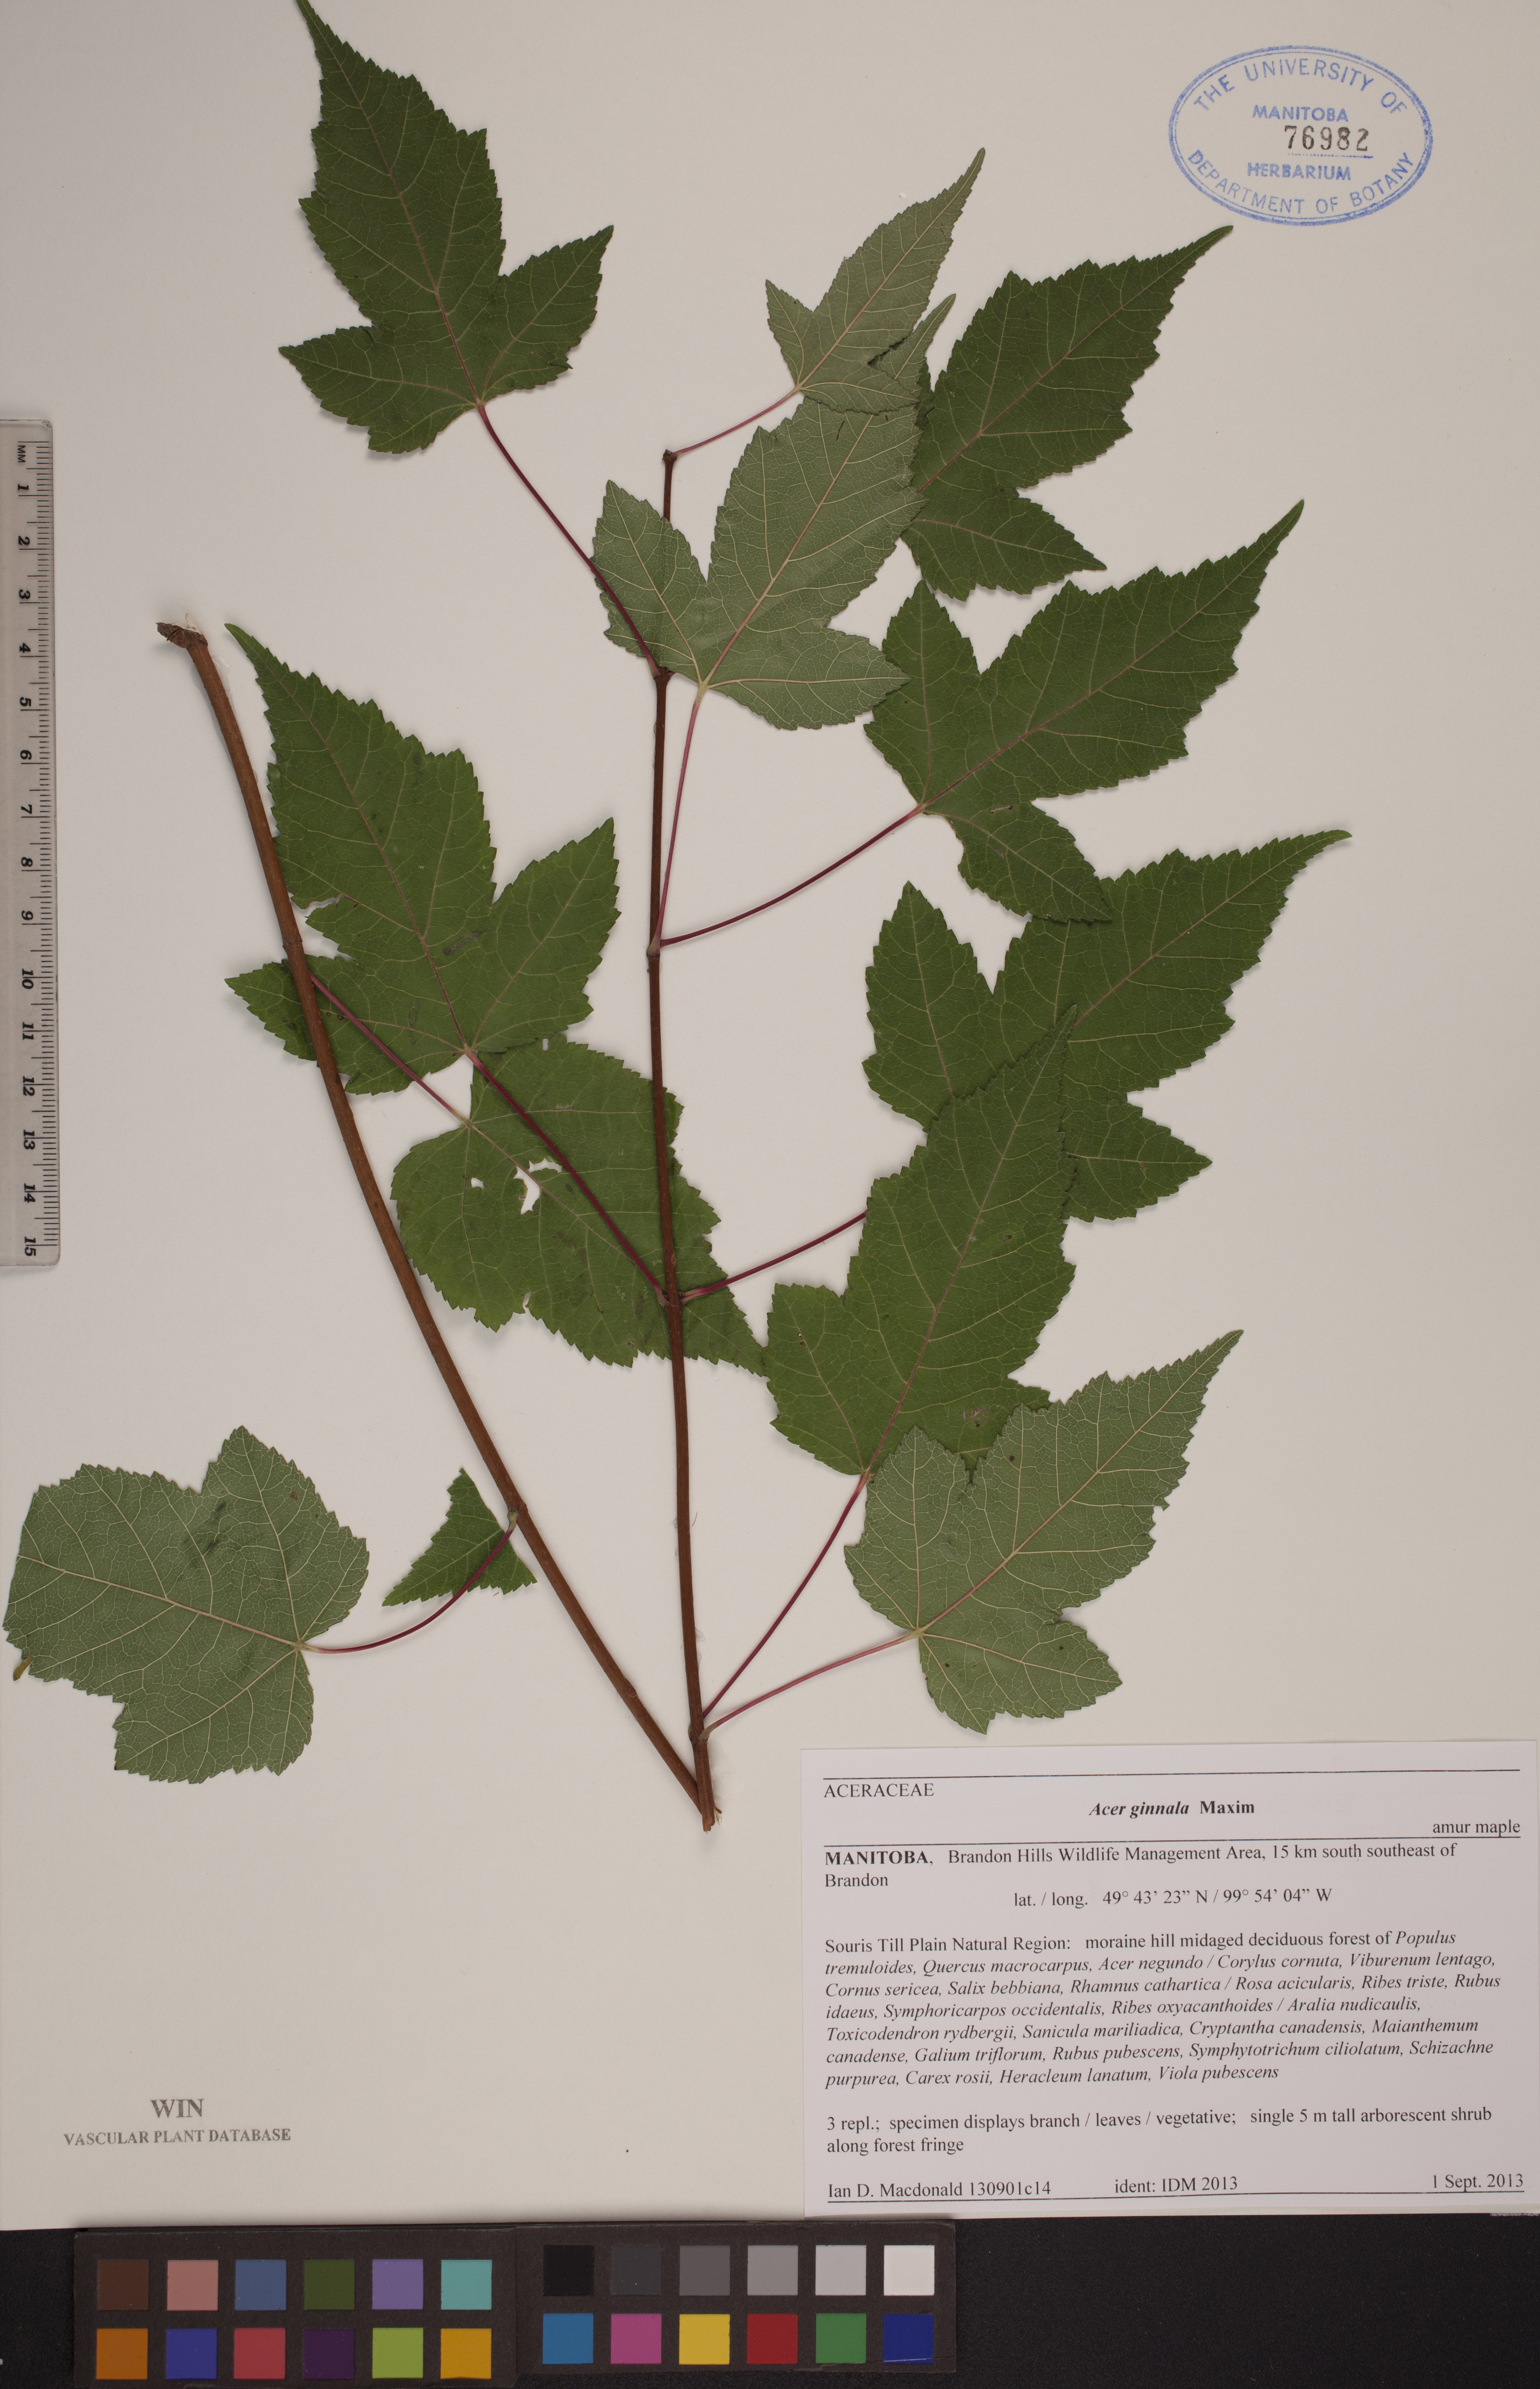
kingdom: Plantae
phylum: Tracheophyta
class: Magnoliopsida
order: Sapindales
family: Sapindaceae
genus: Acer
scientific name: Acer tataricum
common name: Tartar maple
